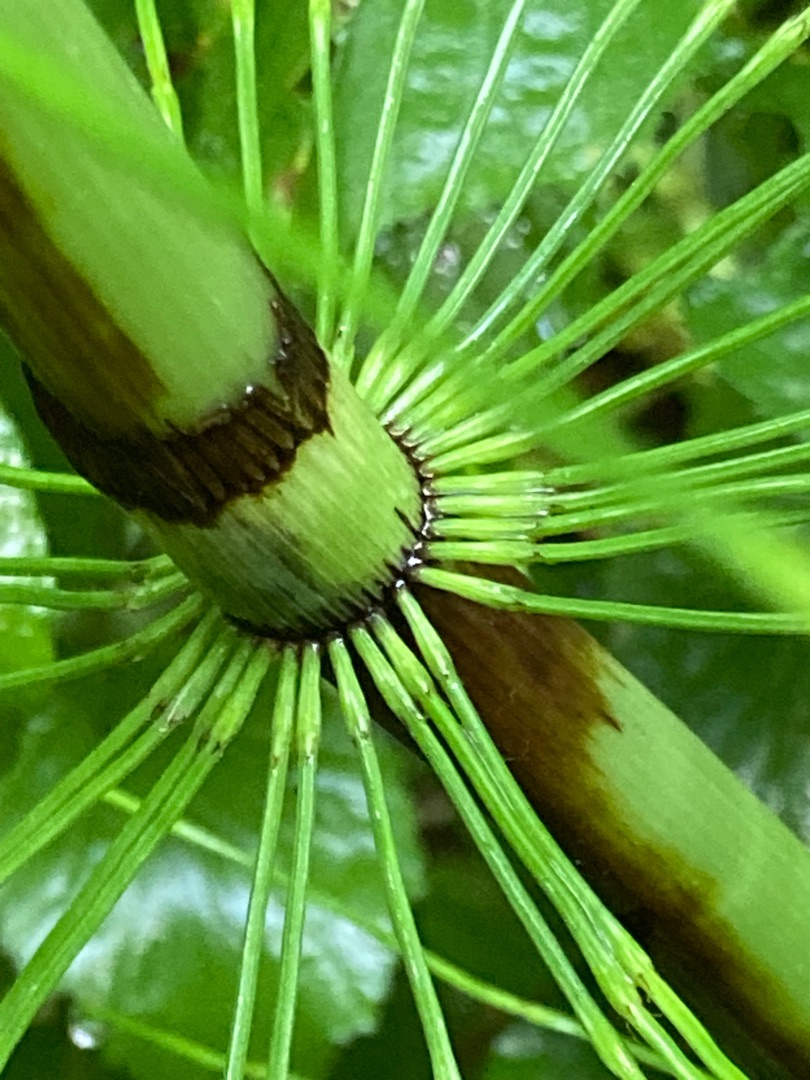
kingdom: Plantae
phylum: Tracheophyta
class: Polypodiopsida
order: Equisetales
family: Equisetaceae
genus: Equisetum
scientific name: Equisetum telmateia
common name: Elfenbens-padderok
